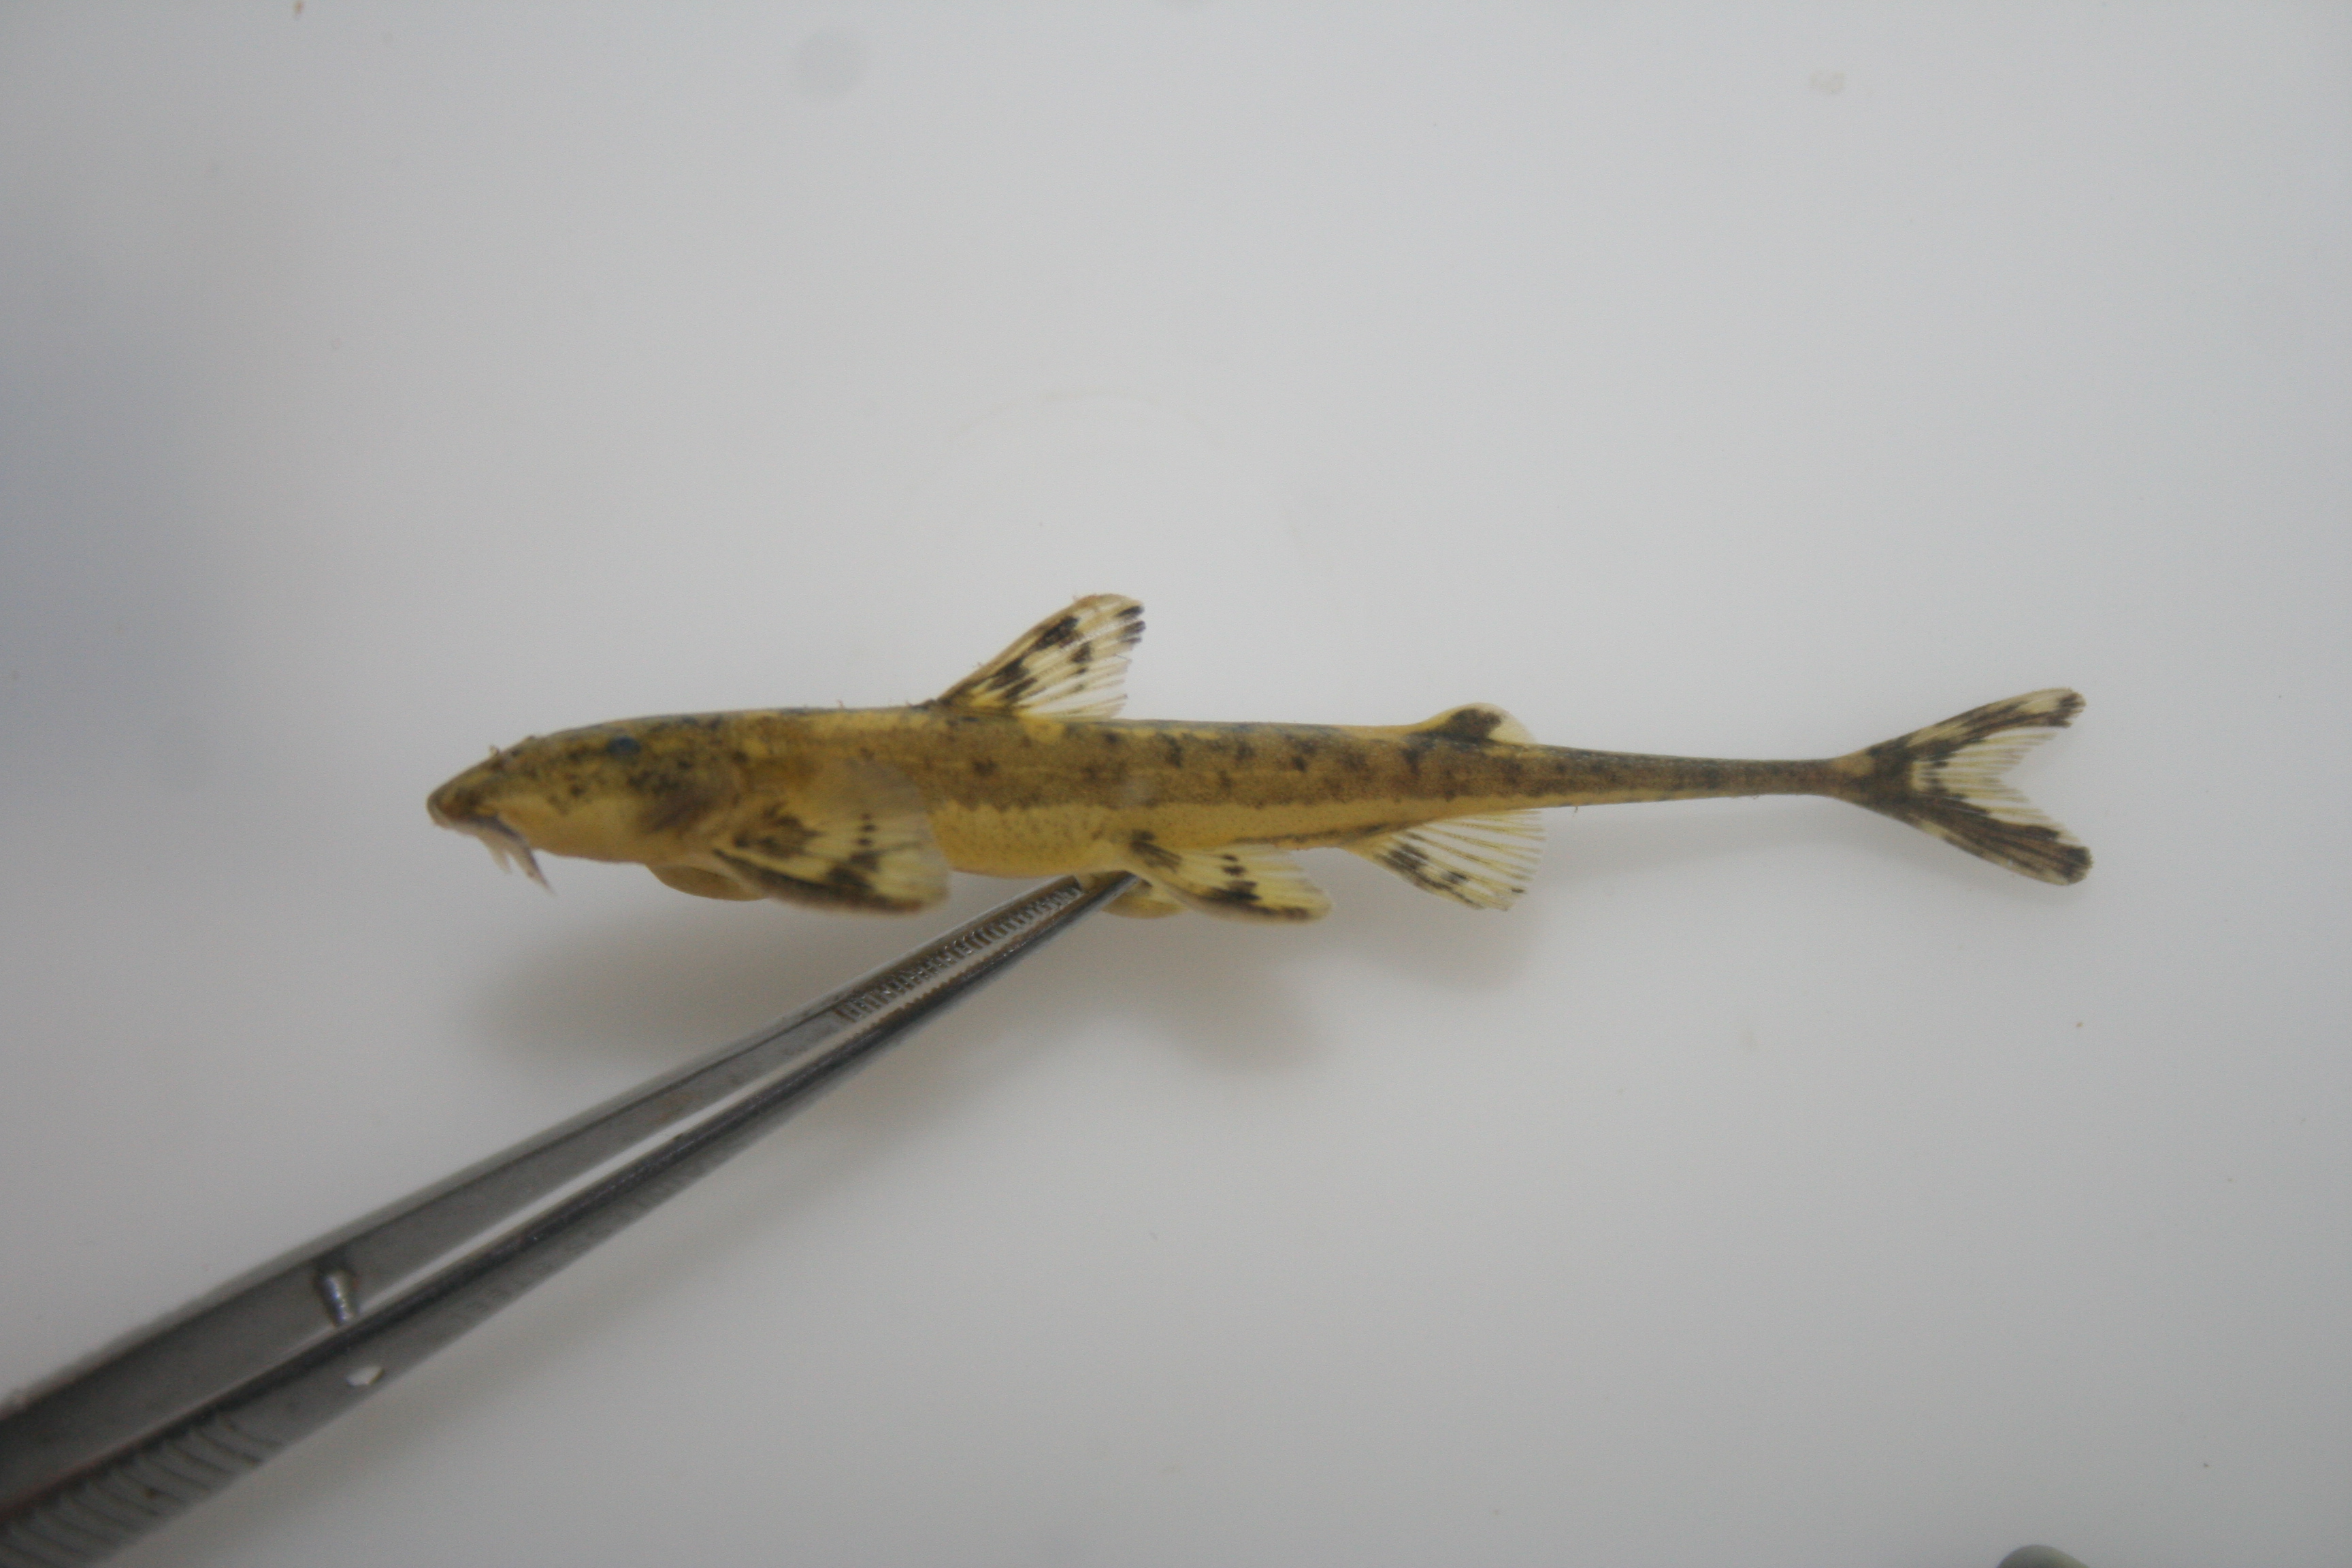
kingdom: Animalia
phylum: Chordata
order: Siluriformes
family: Amphiliidae
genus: Doumea
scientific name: Doumea
